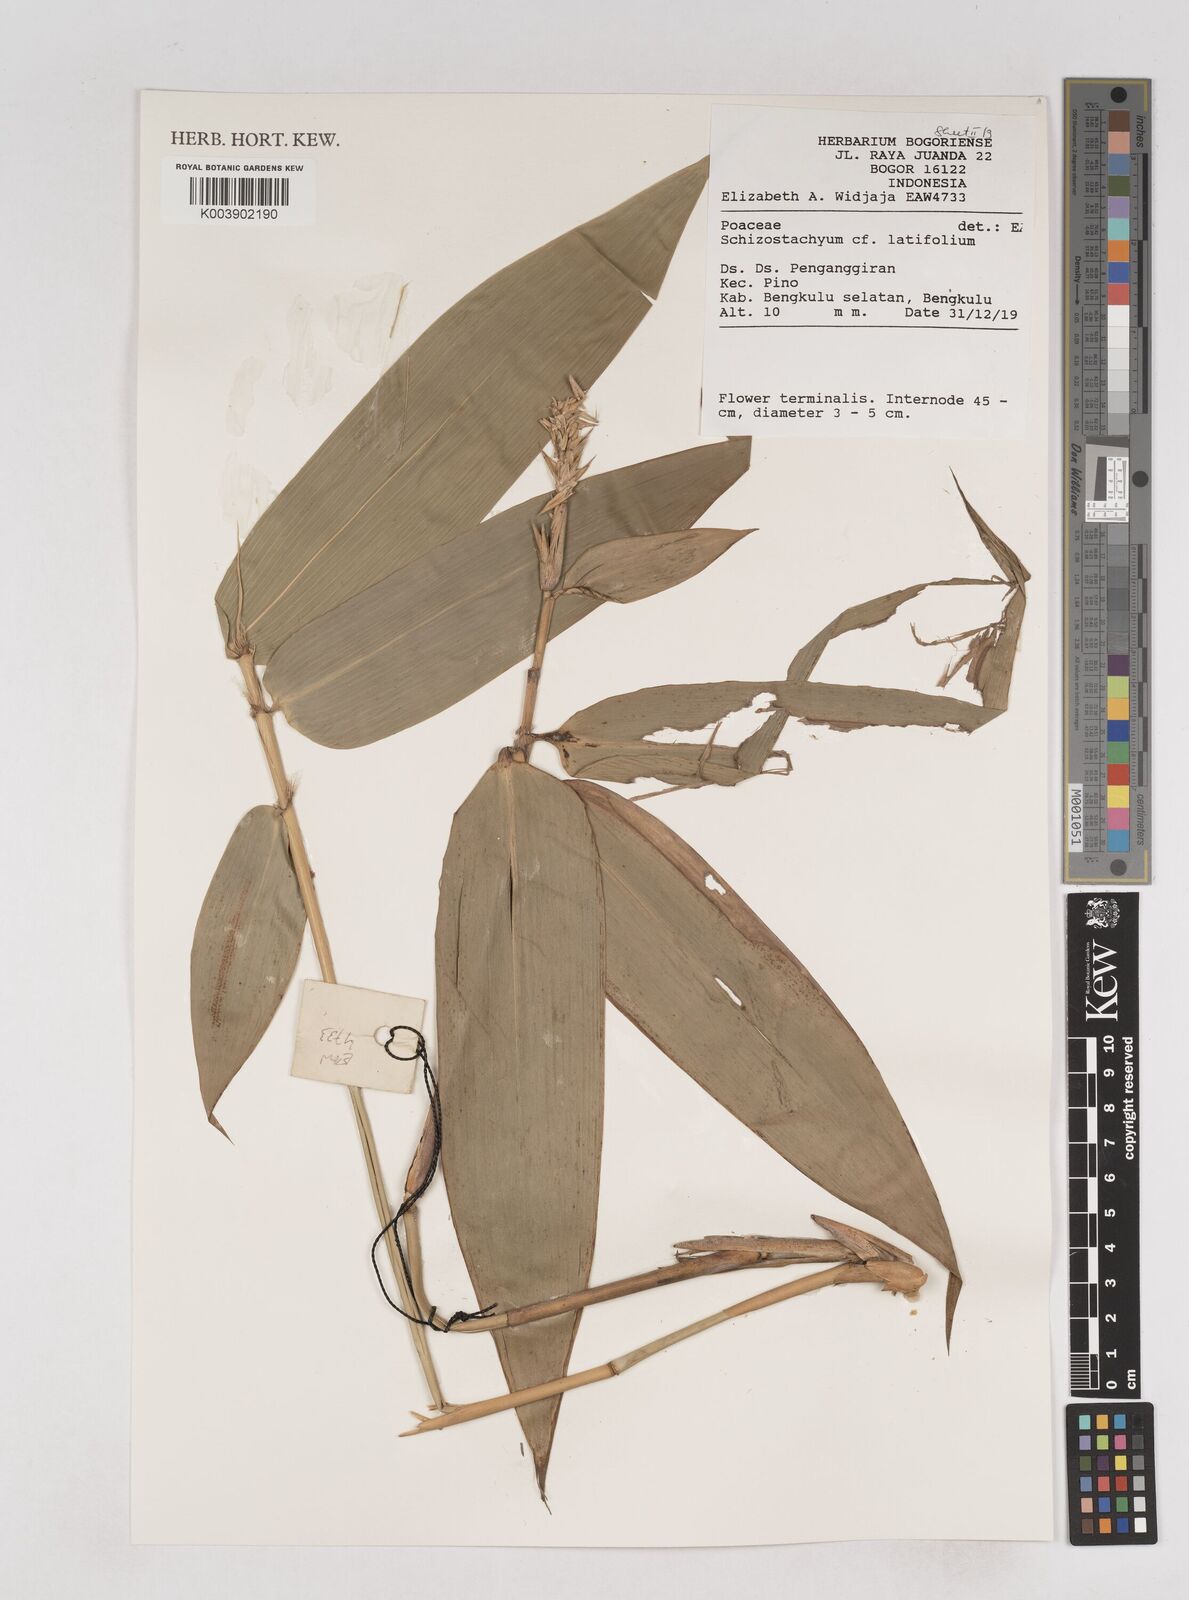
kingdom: Plantae
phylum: Tracheophyta
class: Liliopsida
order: Poales
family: Poaceae
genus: Schizostachyum
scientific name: Schizostachyum latifolium
